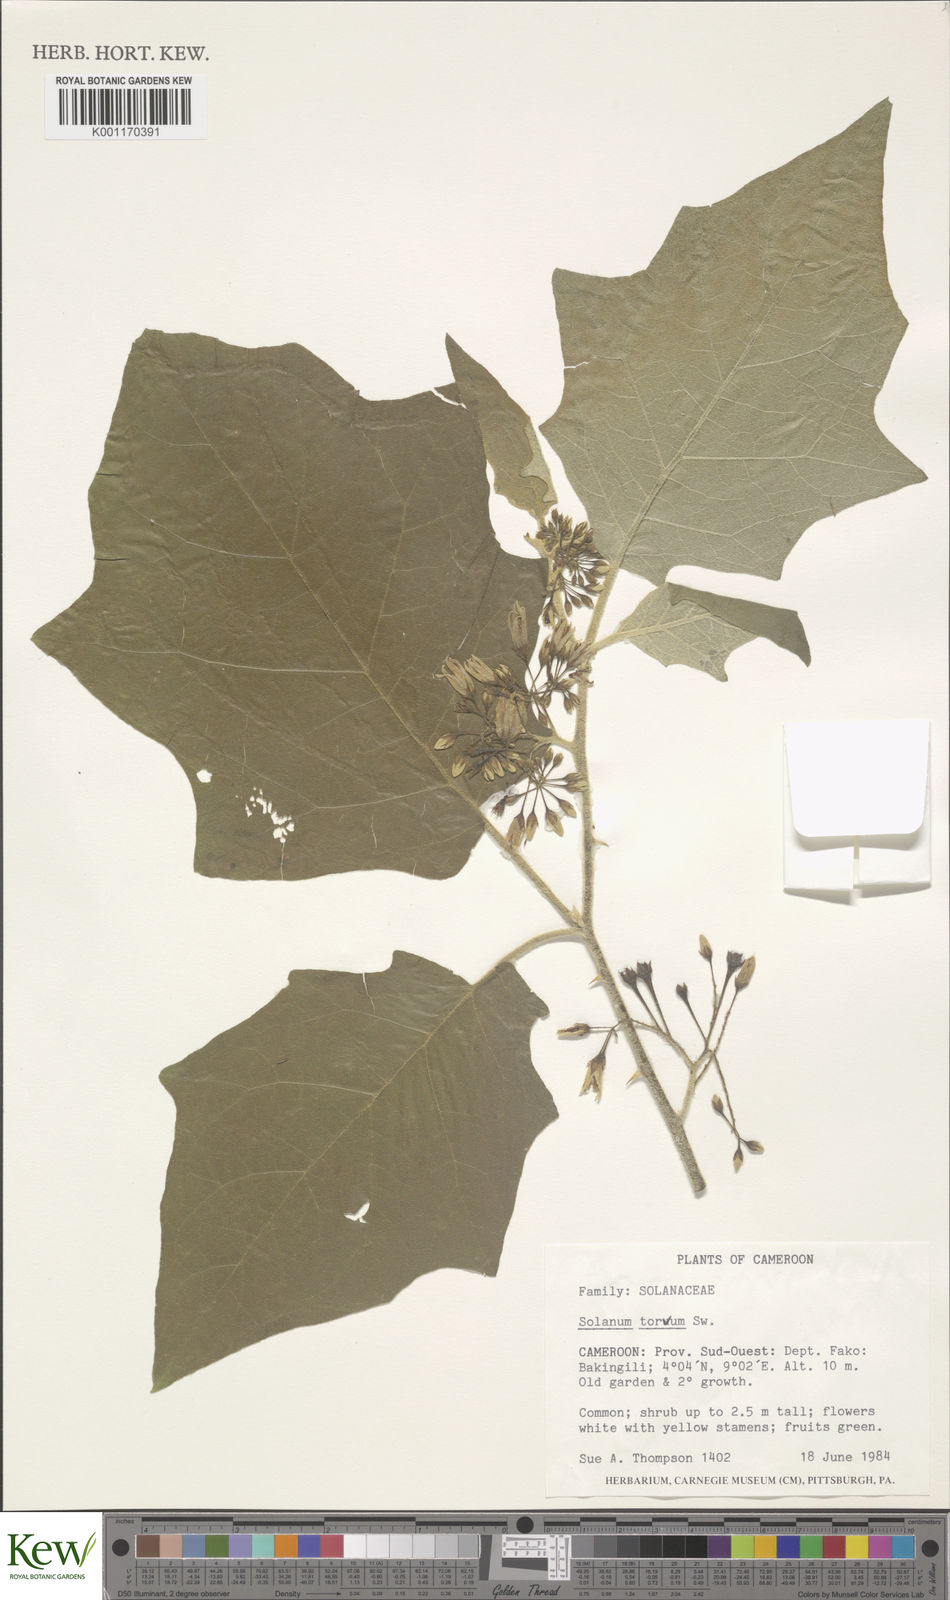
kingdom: Plantae
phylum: Tracheophyta
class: Magnoliopsida
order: Solanales
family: Solanaceae
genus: Solanum
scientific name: Solanum torvum
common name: Turkey berry
